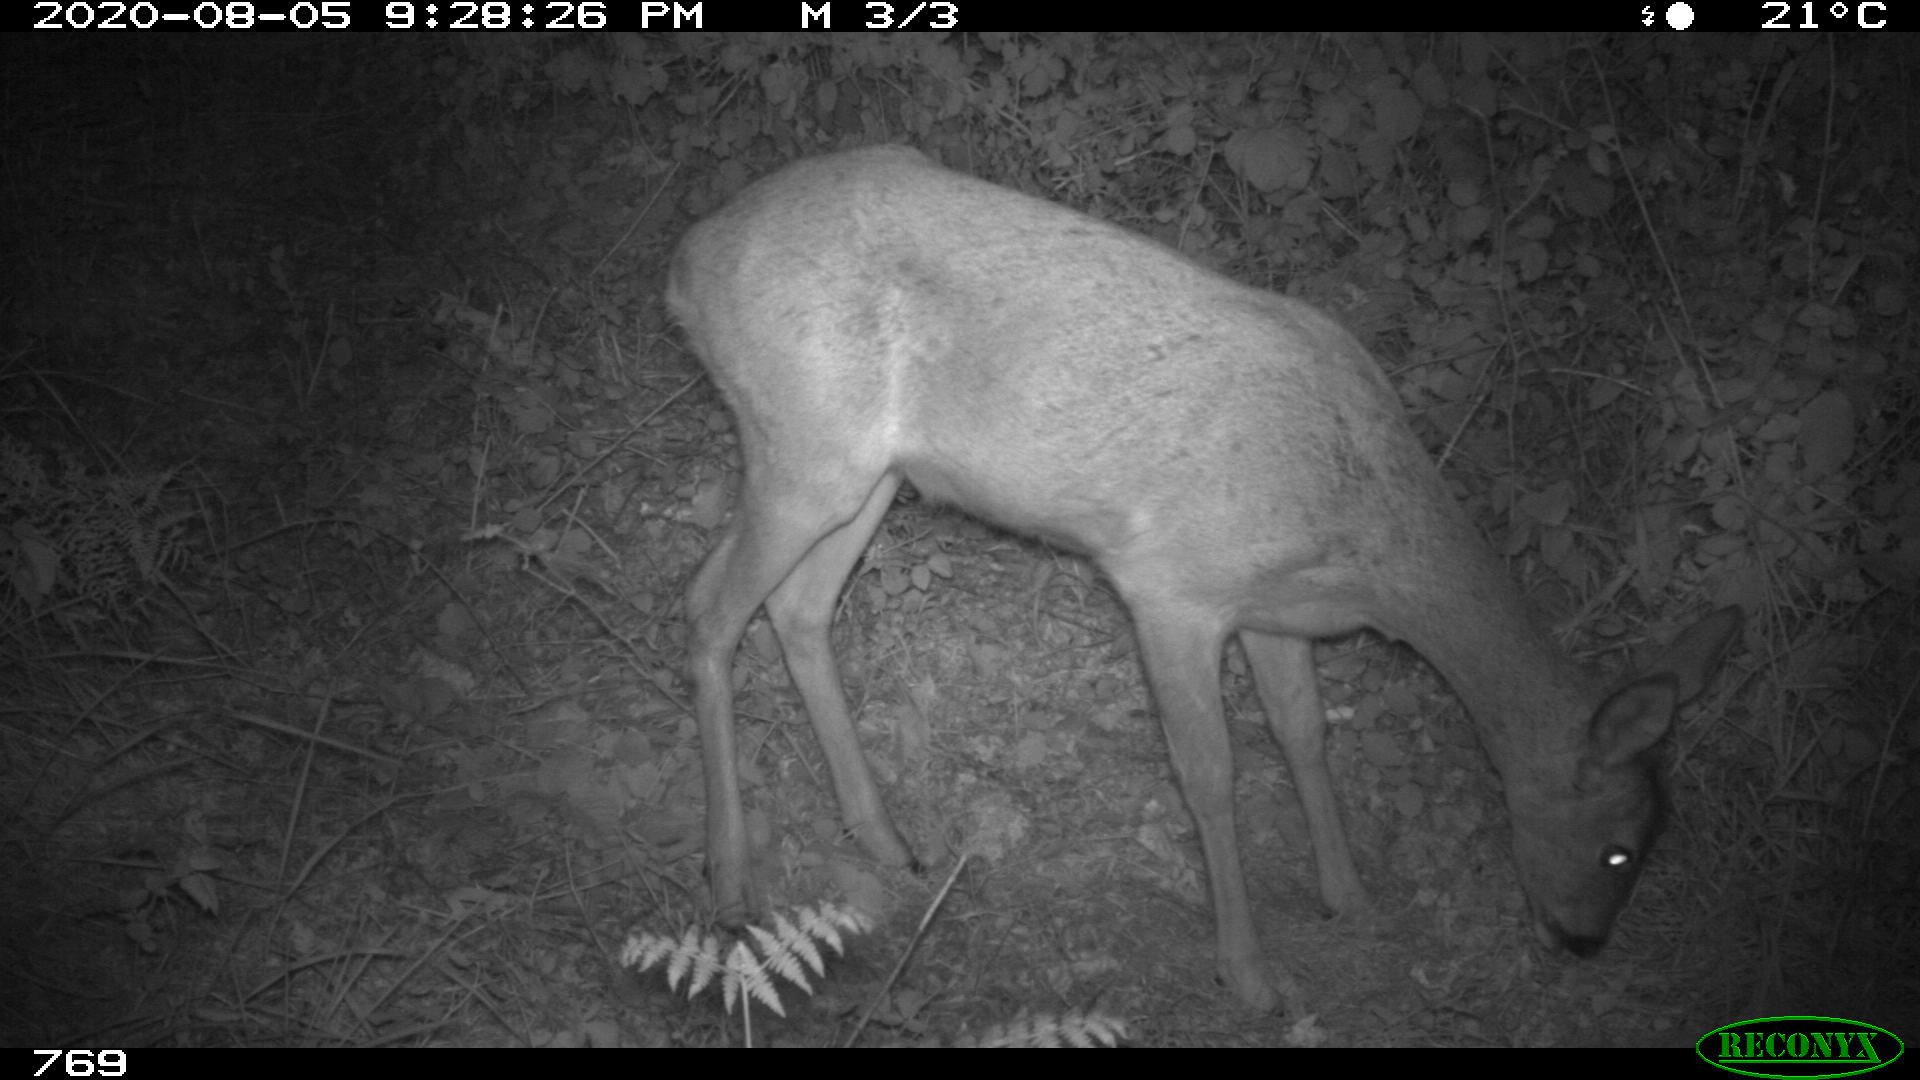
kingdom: Animalia
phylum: Chordata
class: Mammalia
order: Artiodactyla
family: Cervidae
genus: Capreolus
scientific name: Capreolus capreolus
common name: Western roe deer
